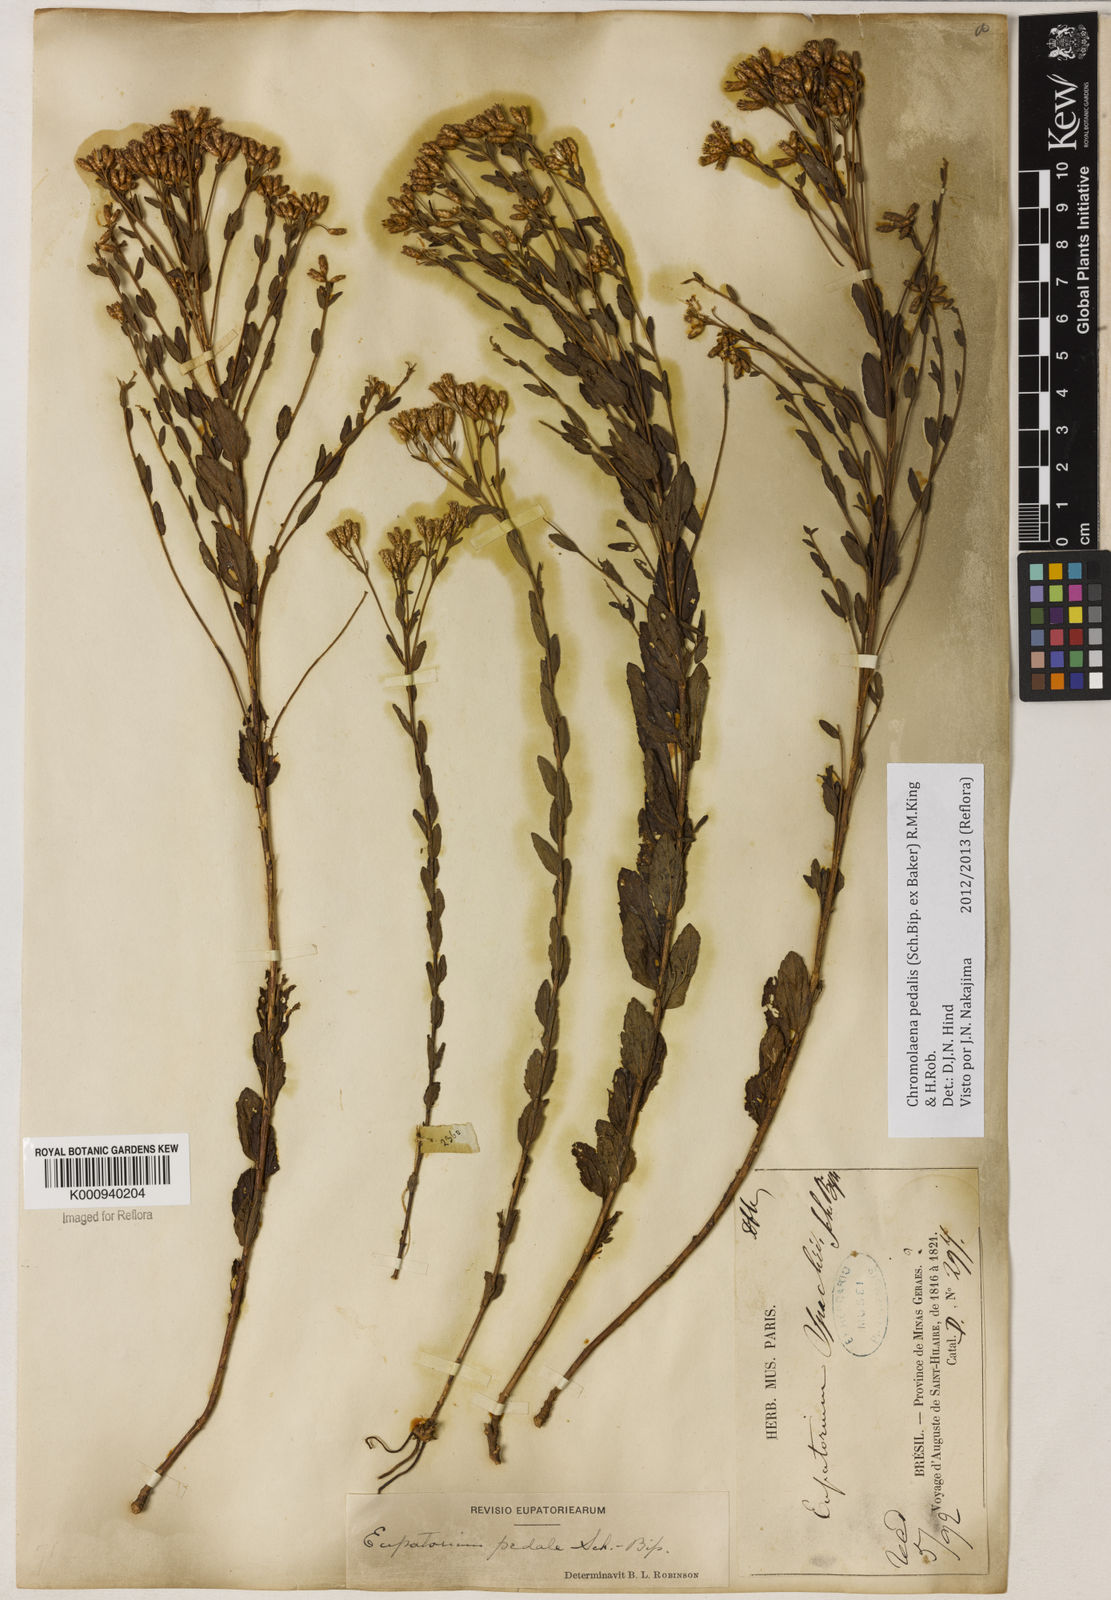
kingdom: Plantae
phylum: Tracheophyta
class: Magnoliopsida
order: Asterales
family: Asteraceae
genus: Chromolaena
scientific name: Chromolaena pedalis
